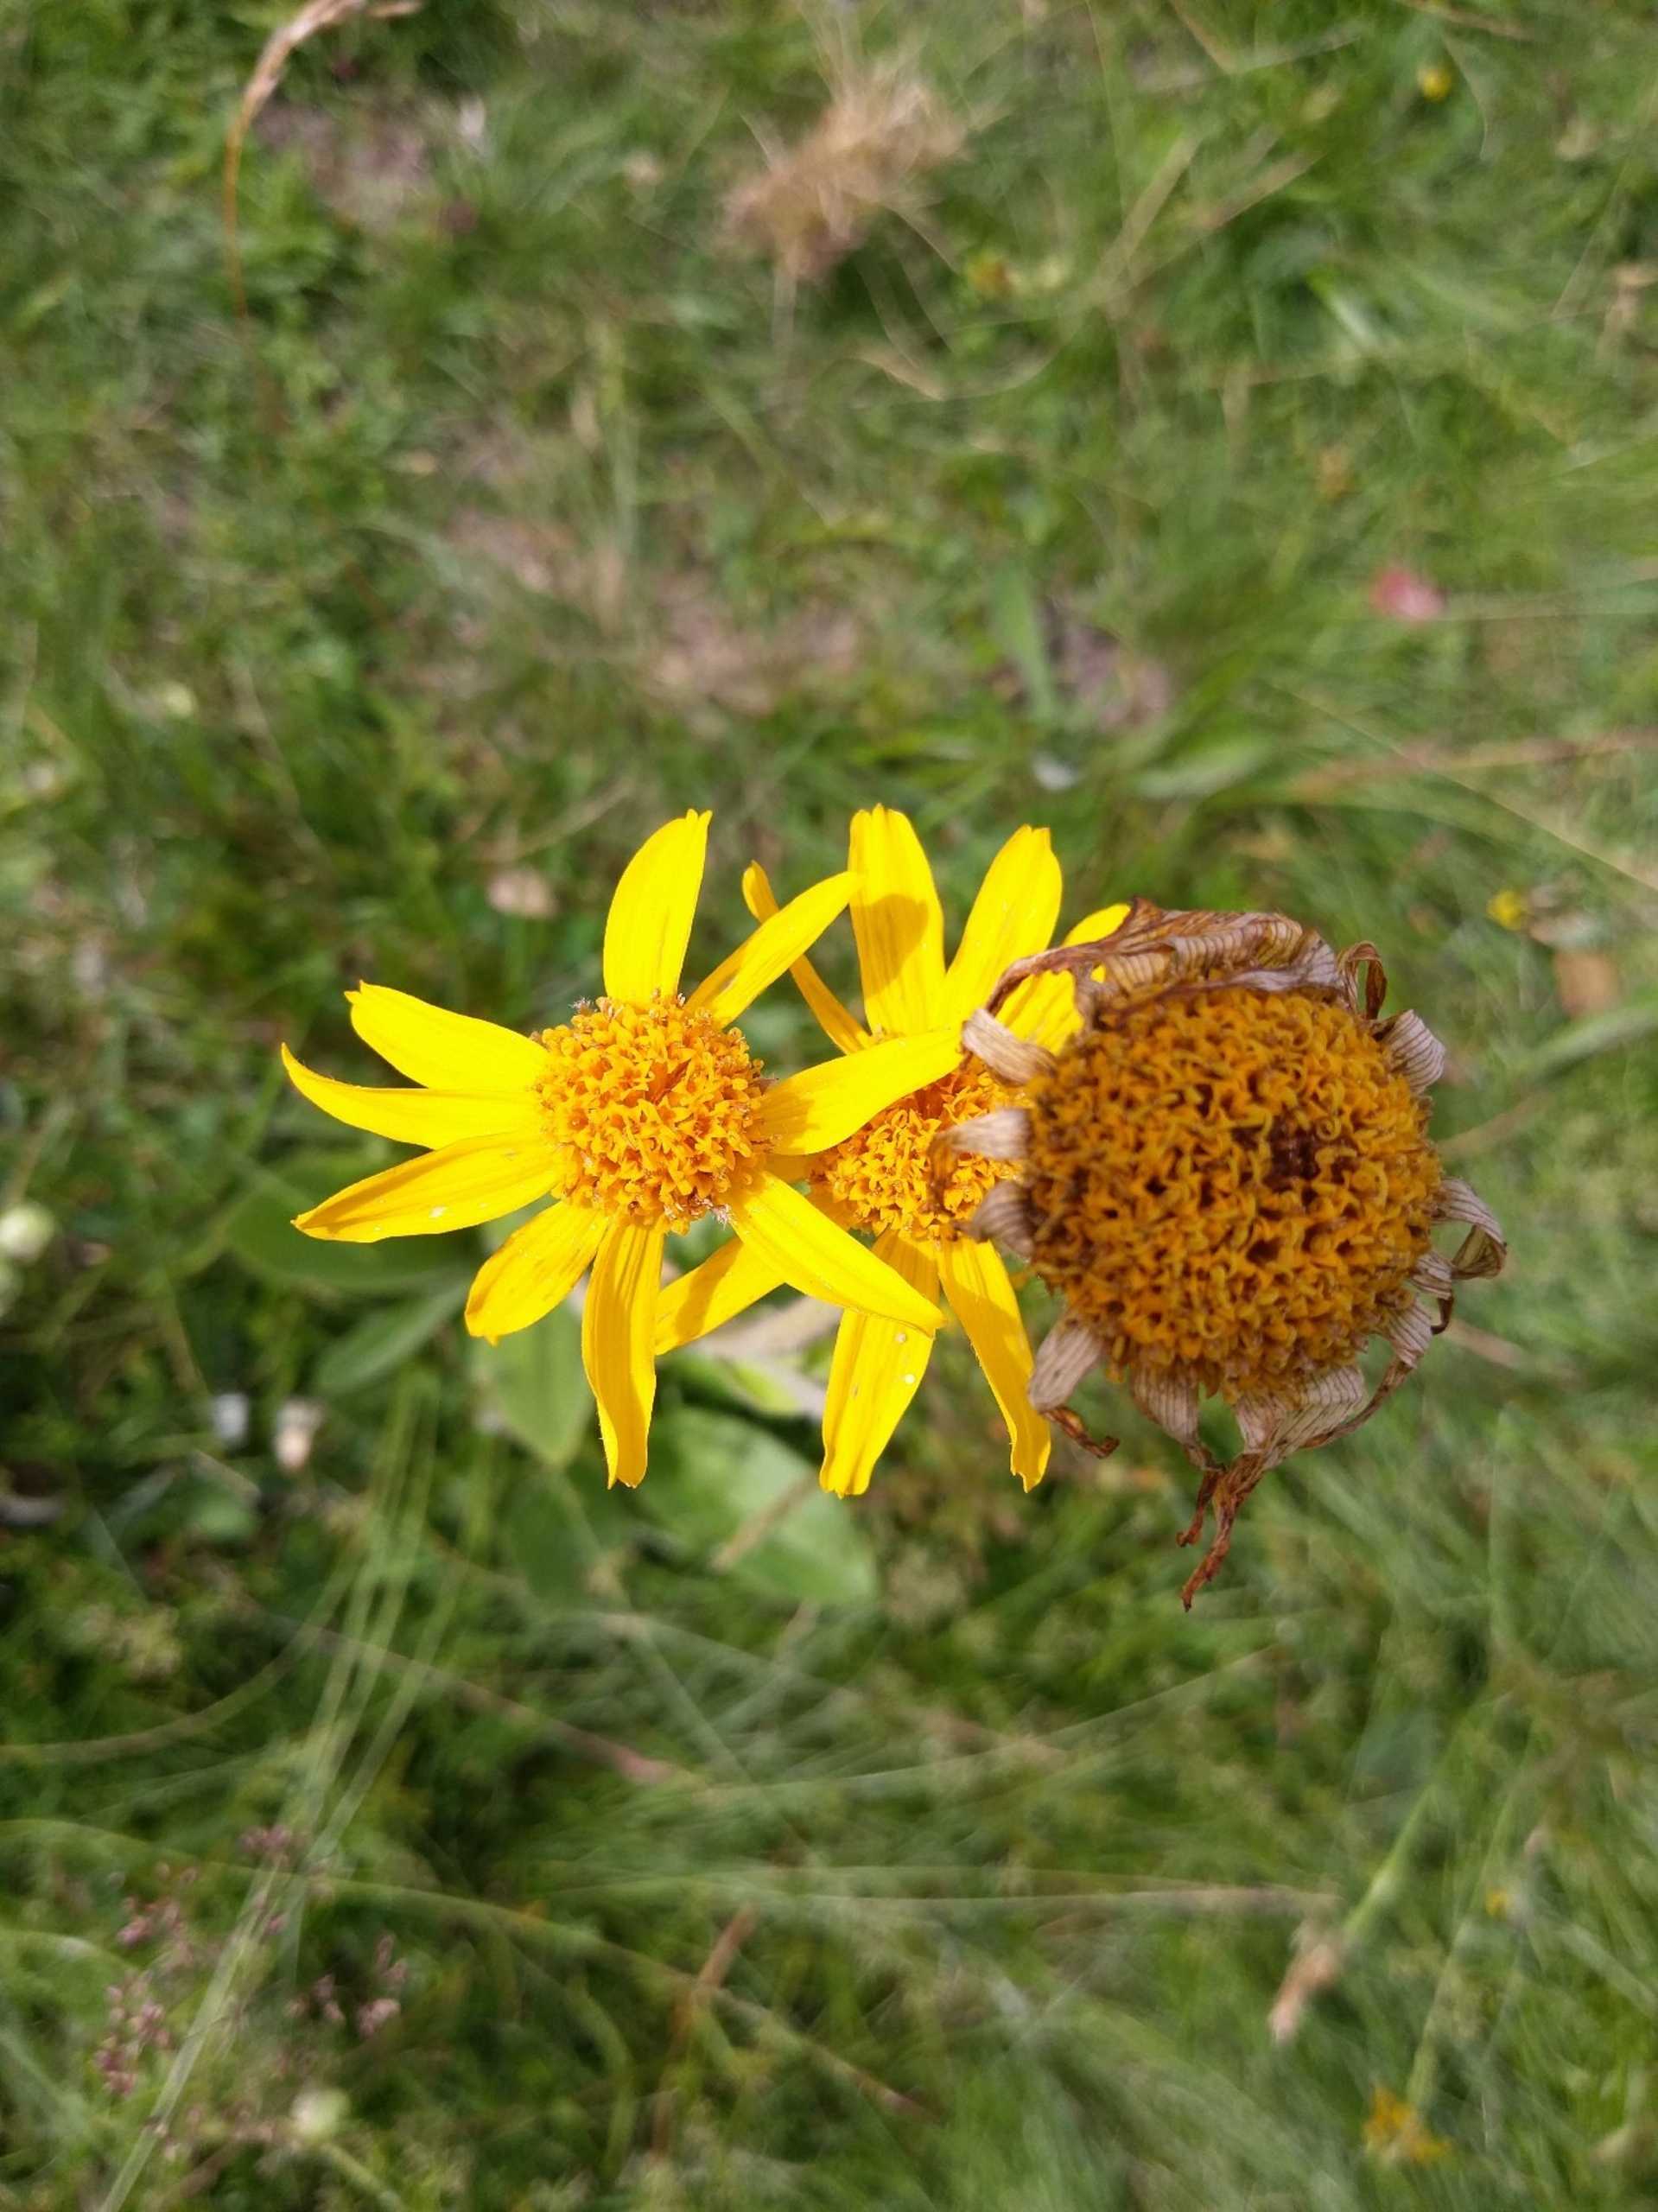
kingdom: Plantae
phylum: Tracheophyta
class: Magnoliopsida
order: Asterales
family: Asteraceae
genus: Arnica
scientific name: Arnica montana
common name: Guldblomme
